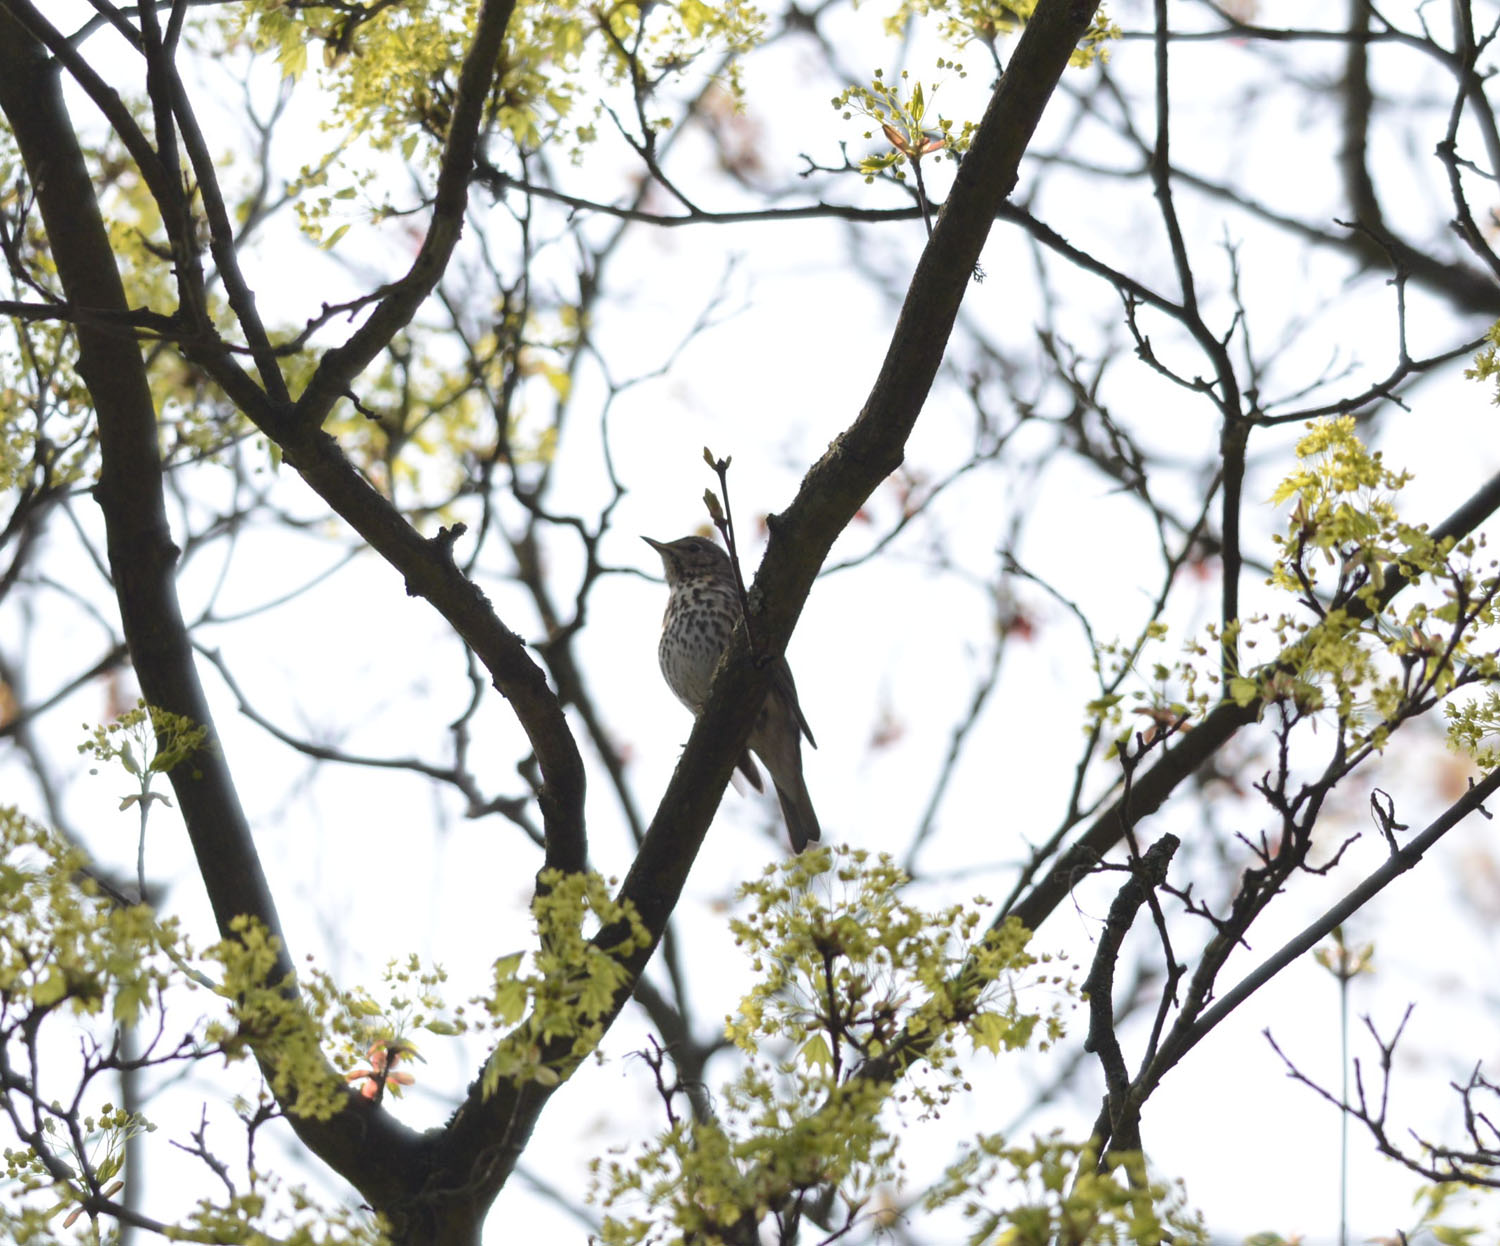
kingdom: Animalia
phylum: Chordata
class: Aves
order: Passeriformes
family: Turdidae
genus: Turdus
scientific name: Turdus philomelos
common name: Song thrush
